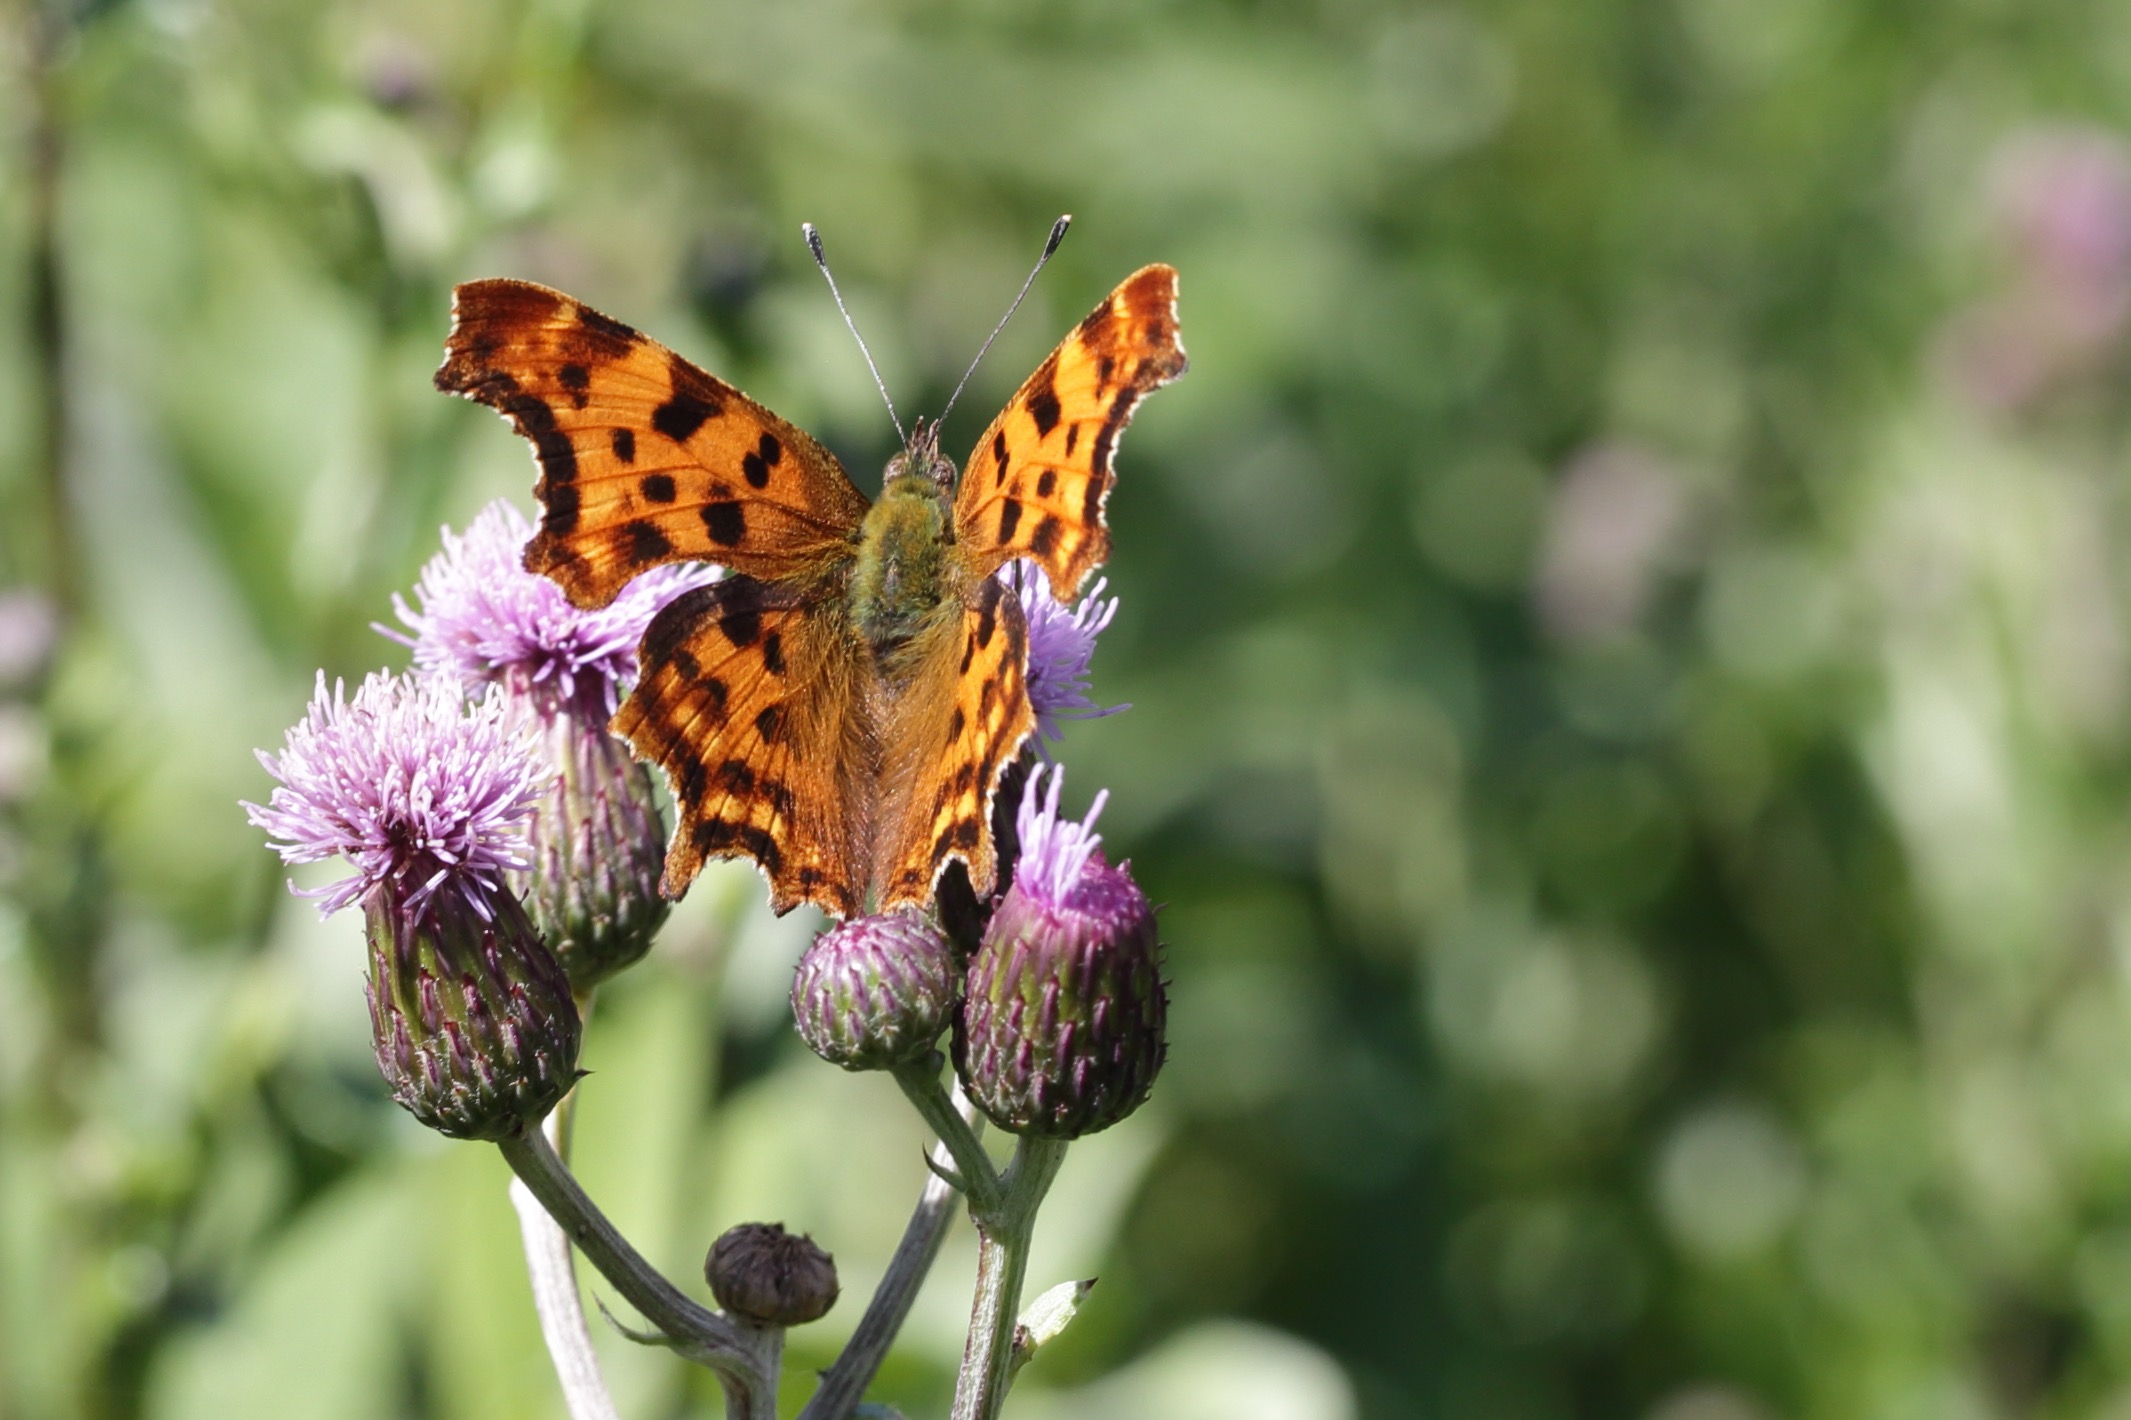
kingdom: Animalia
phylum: Arthropoda
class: Insecta
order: Lepidoptera
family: Nymphalidae
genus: Polygonia
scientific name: Polygonia c-album
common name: Det hvide C
